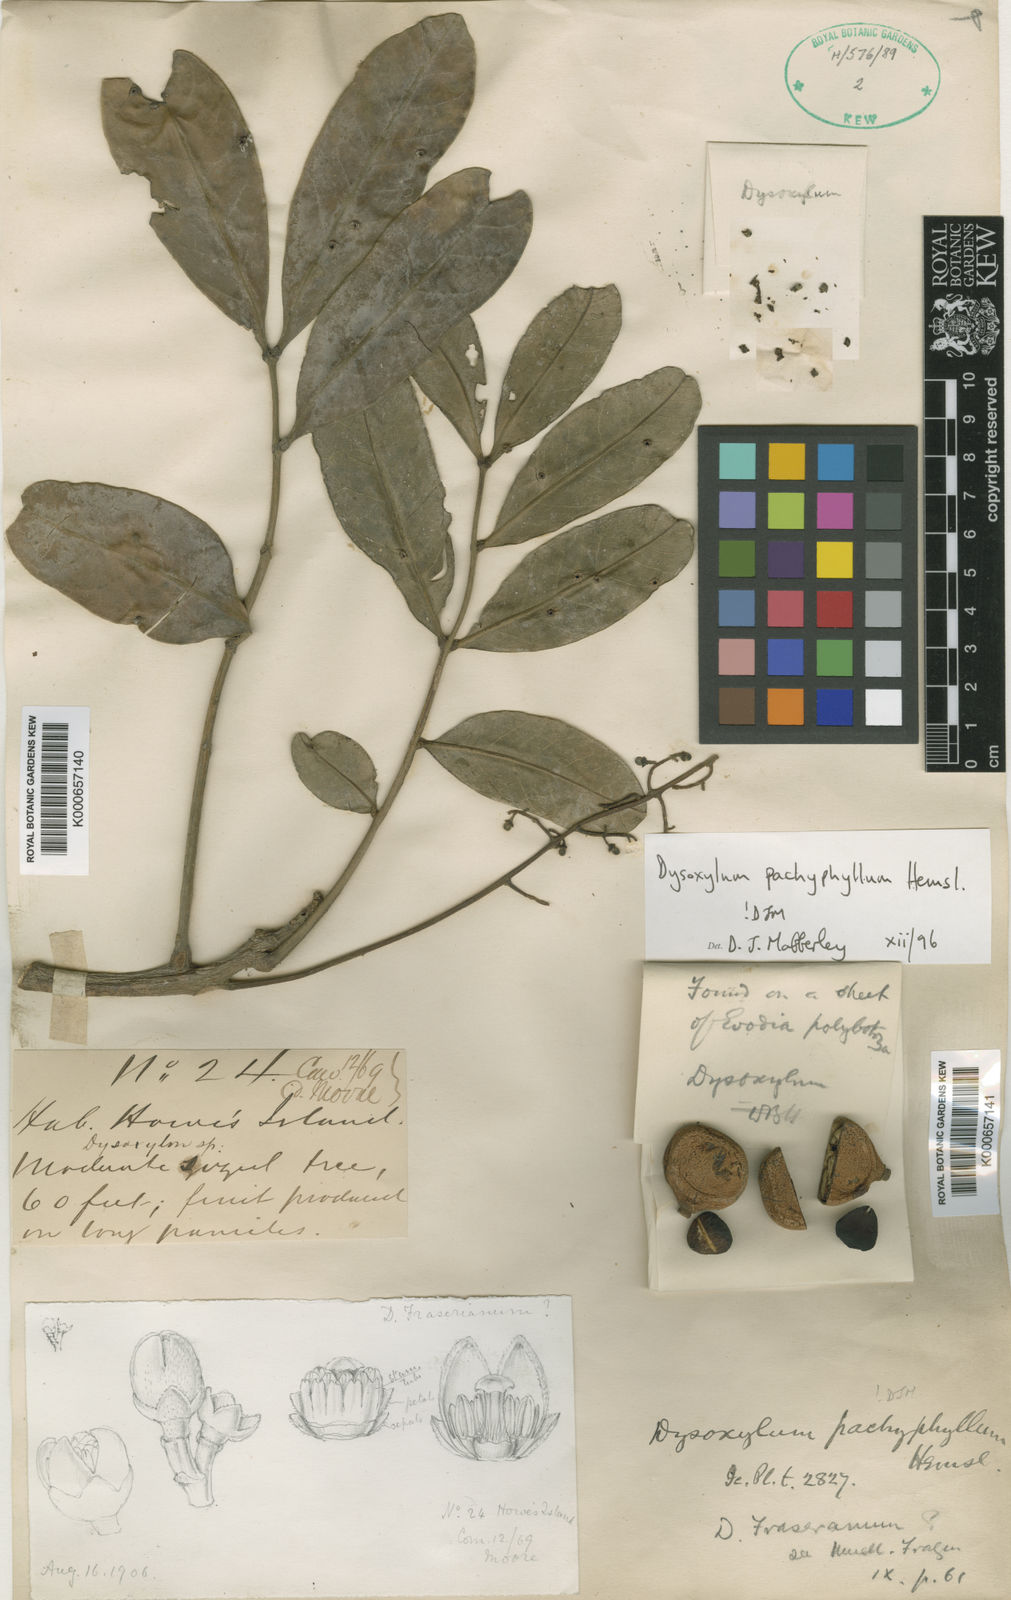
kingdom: Plantae
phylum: Tracheophyta
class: Magnoliopsida
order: Sapindales
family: Meliaceae
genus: Didymocheton
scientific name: Didymocheton pachyphyllus
